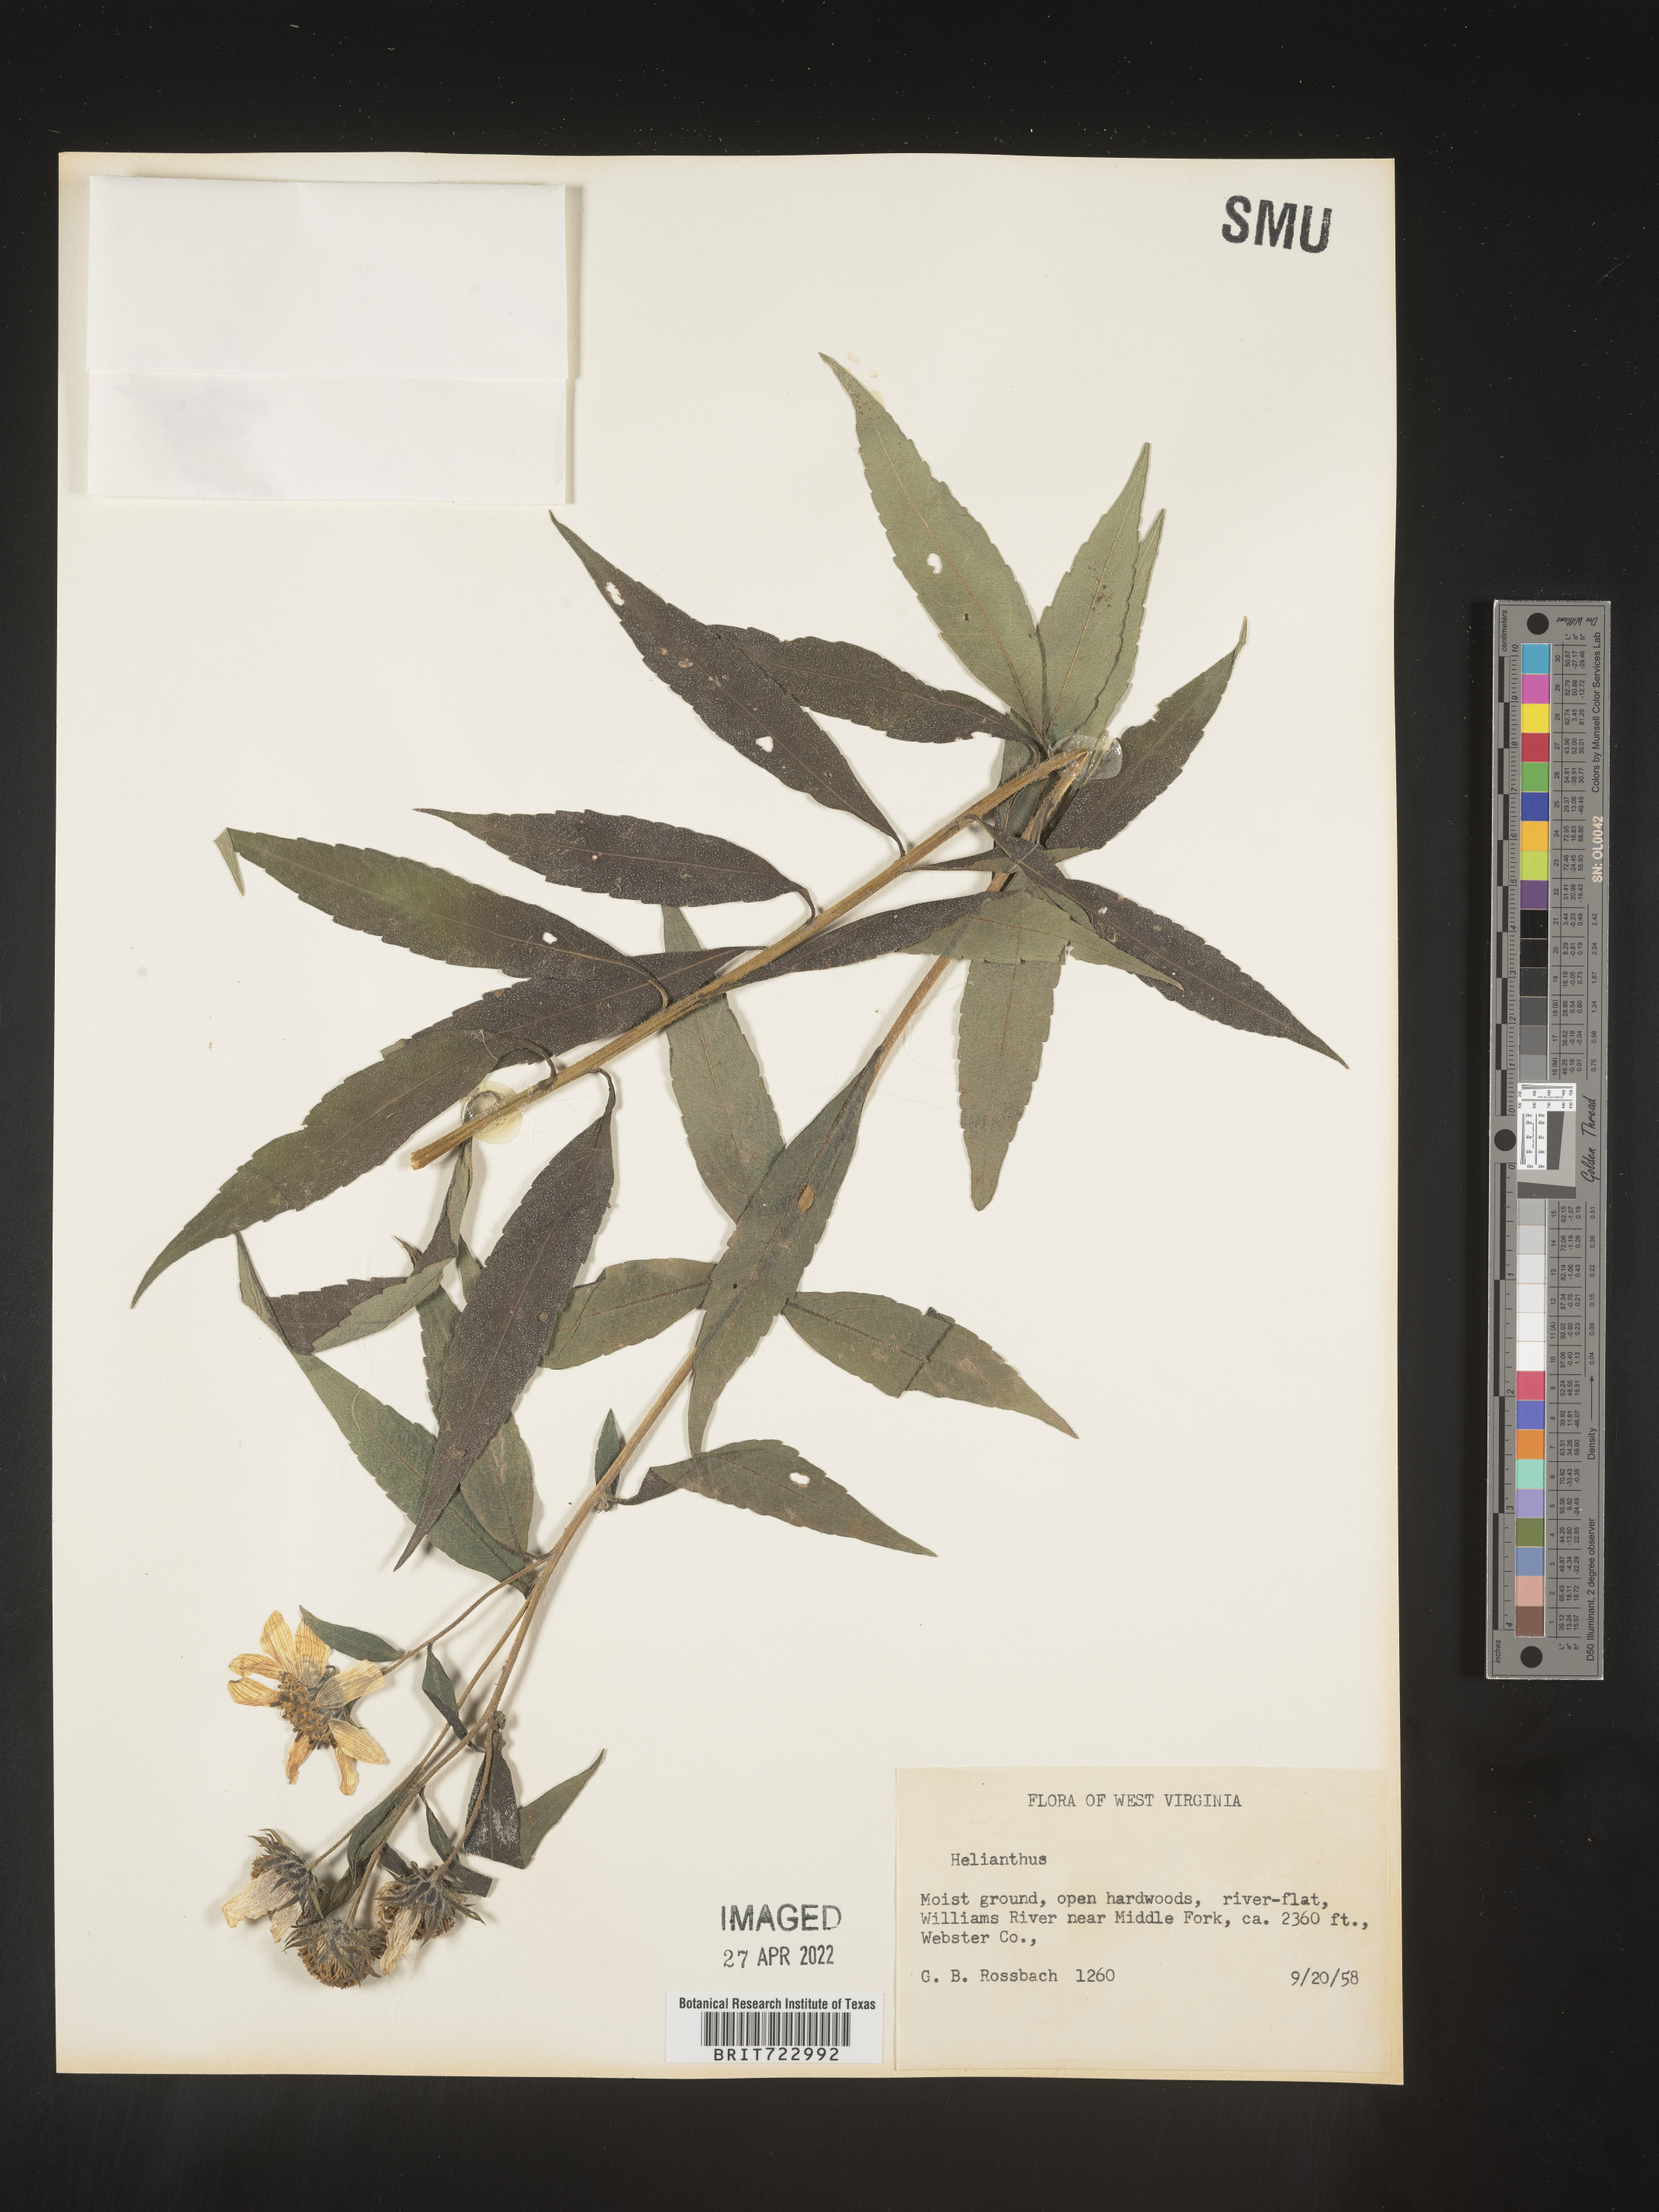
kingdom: Plantae
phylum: Tracheophyta
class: Magnoliopsida
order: Asterales
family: Asteraceae
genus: Helianthus
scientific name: Helianthus
